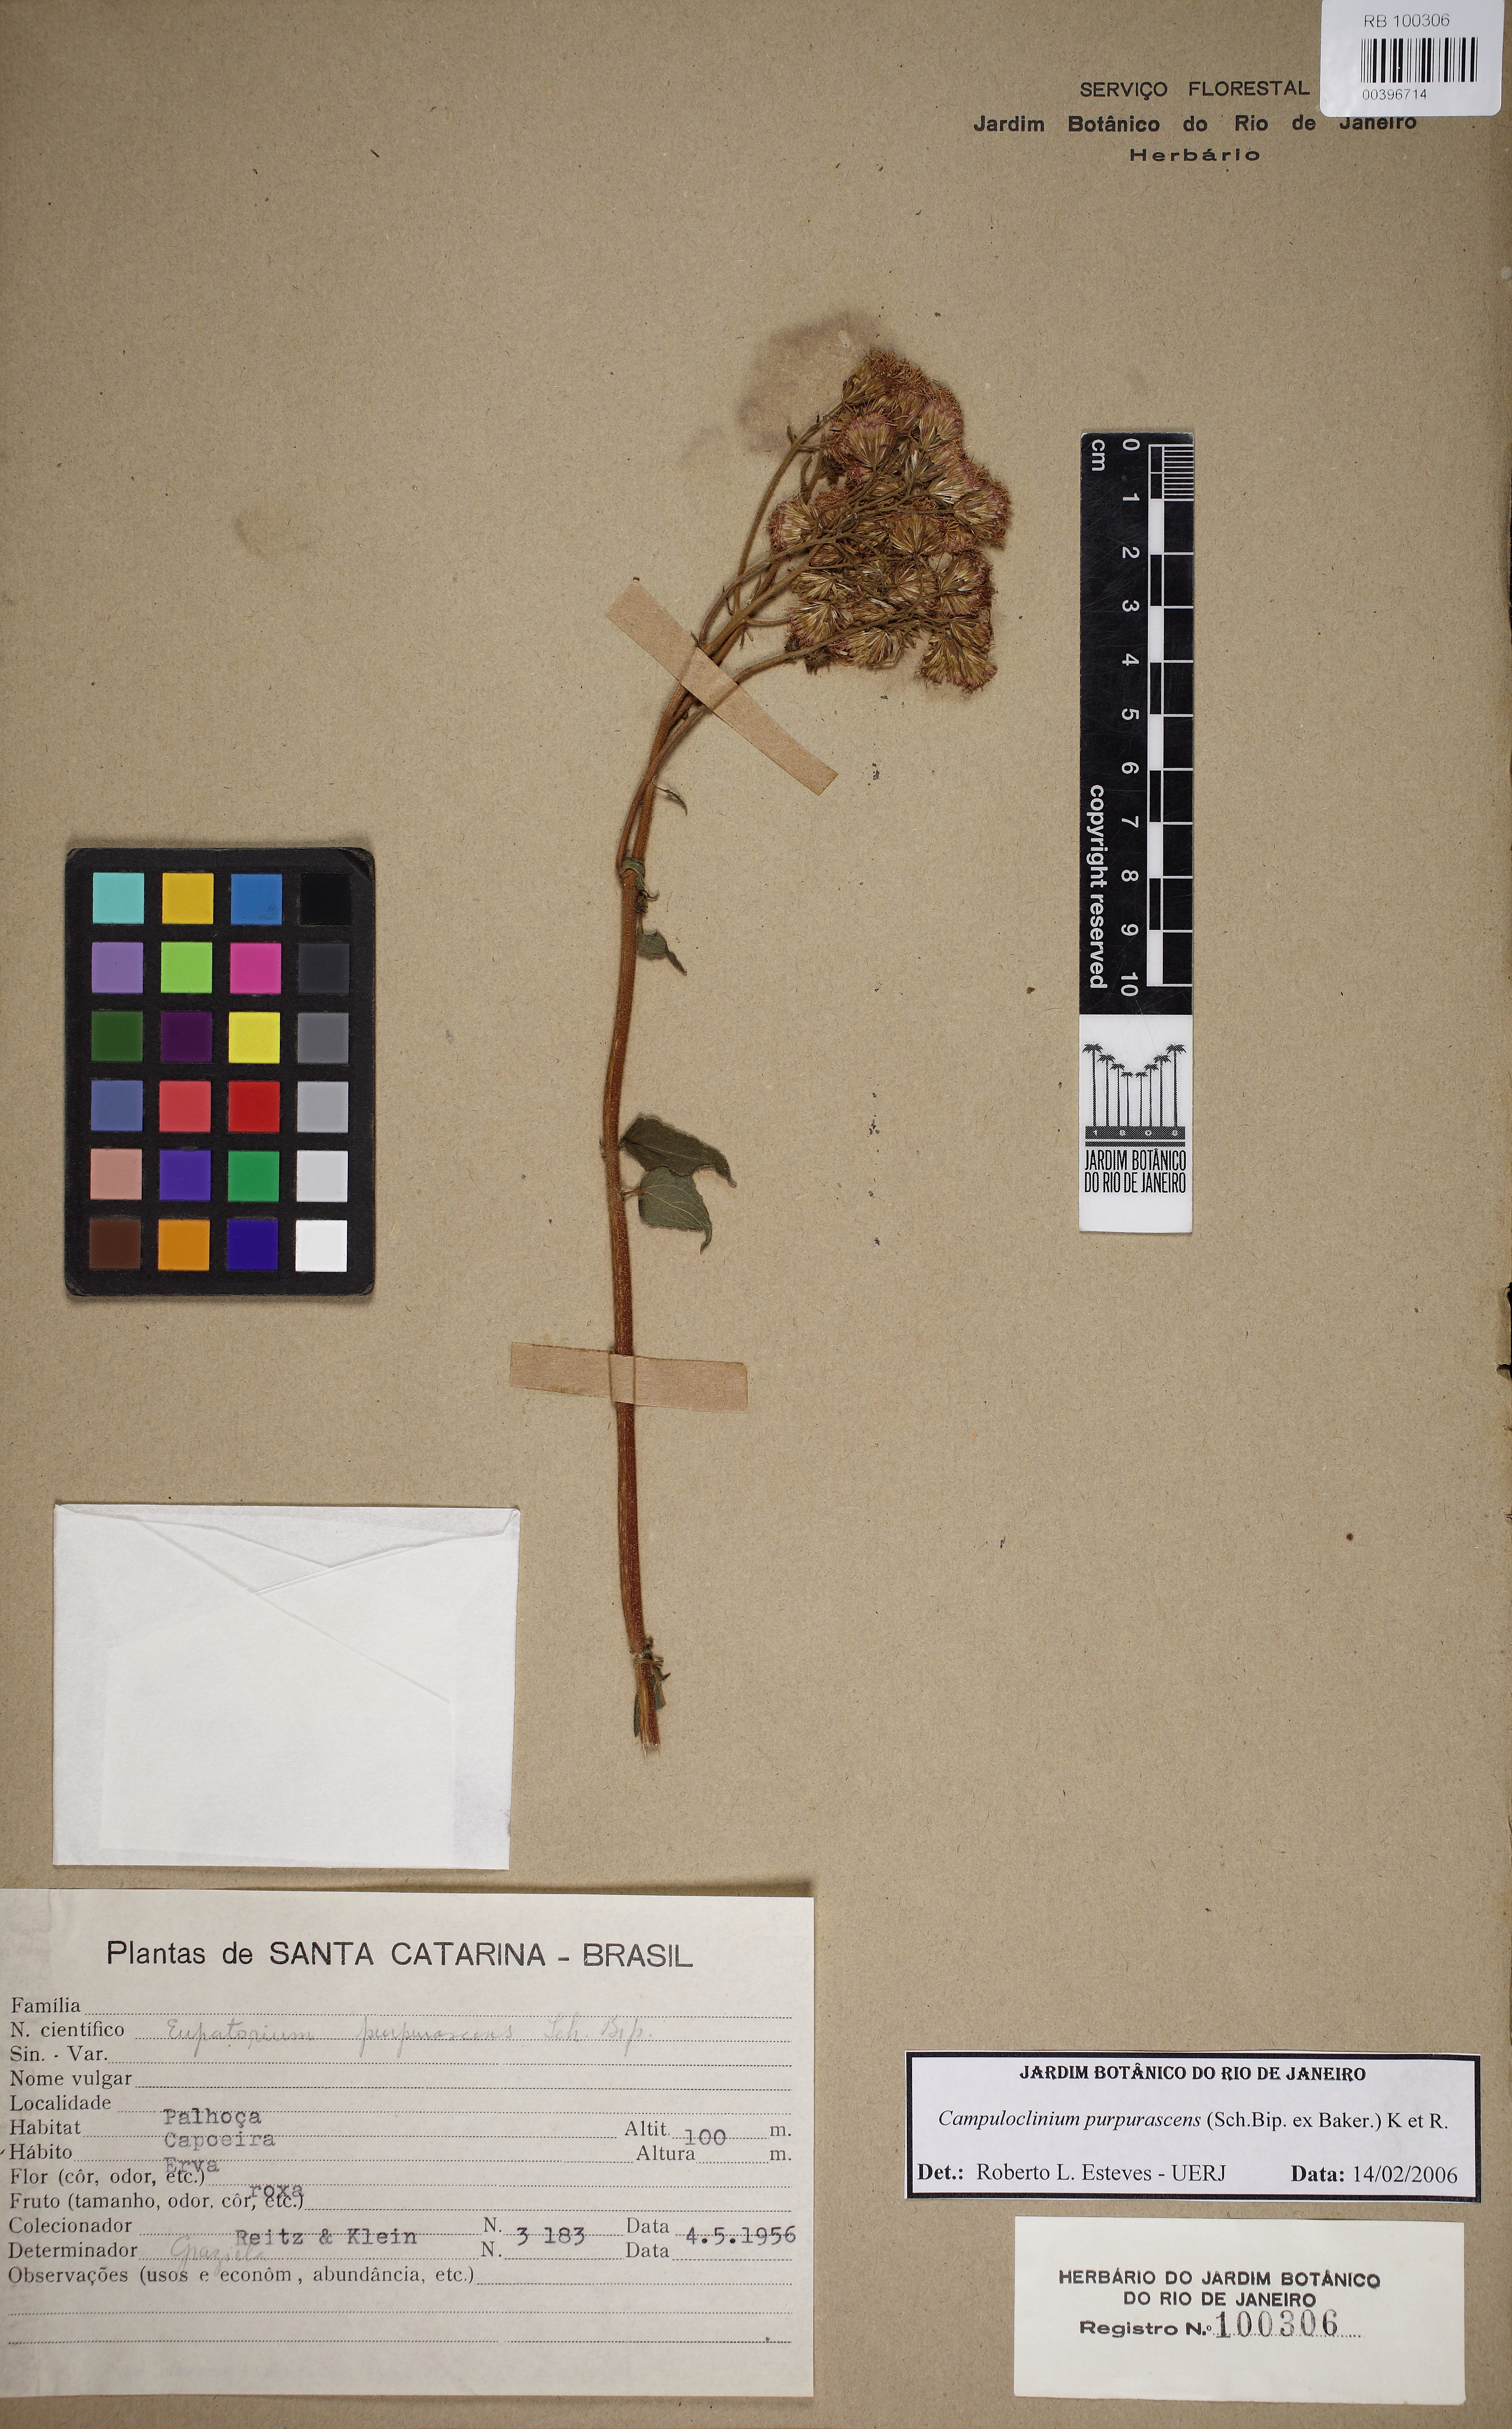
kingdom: Plantae
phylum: Tracheophyta
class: Magnoliopsida
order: Asterales
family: Asteraceae
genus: Campuloclinium
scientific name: Campuloclinium scabrum
